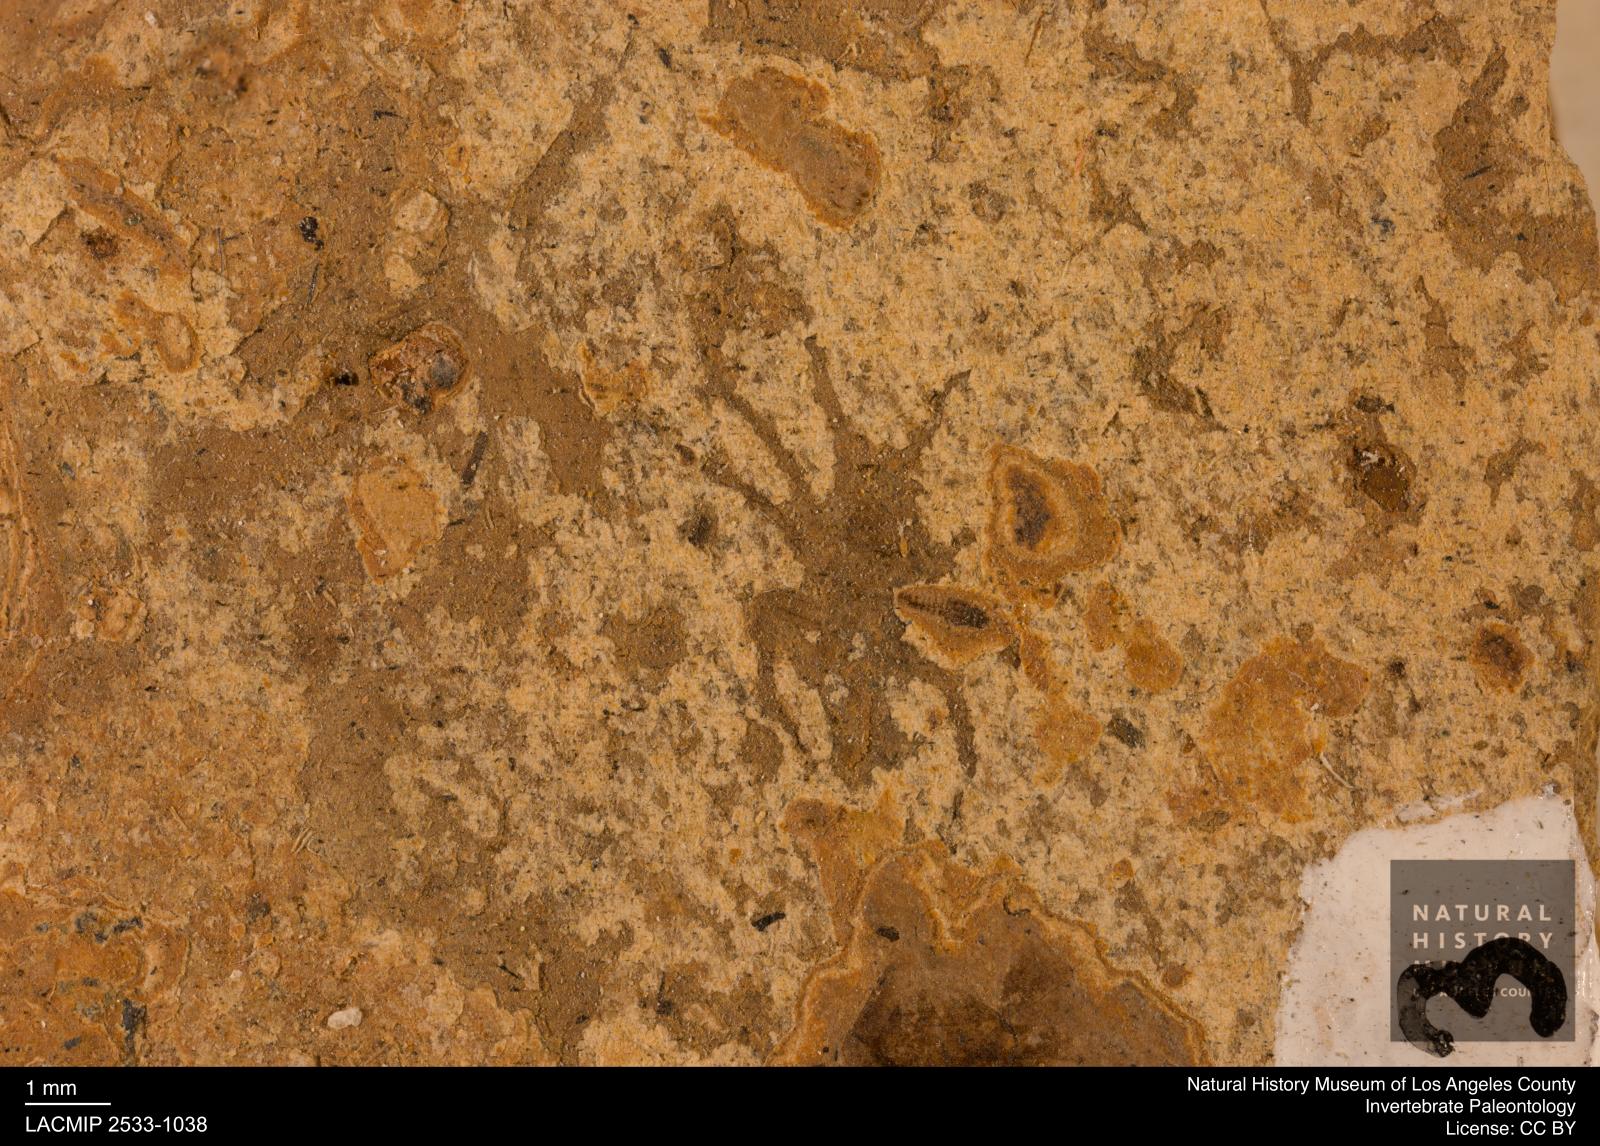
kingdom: Animalia
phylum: Arthropoda
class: Arachnida
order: Araneae
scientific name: Araneae
